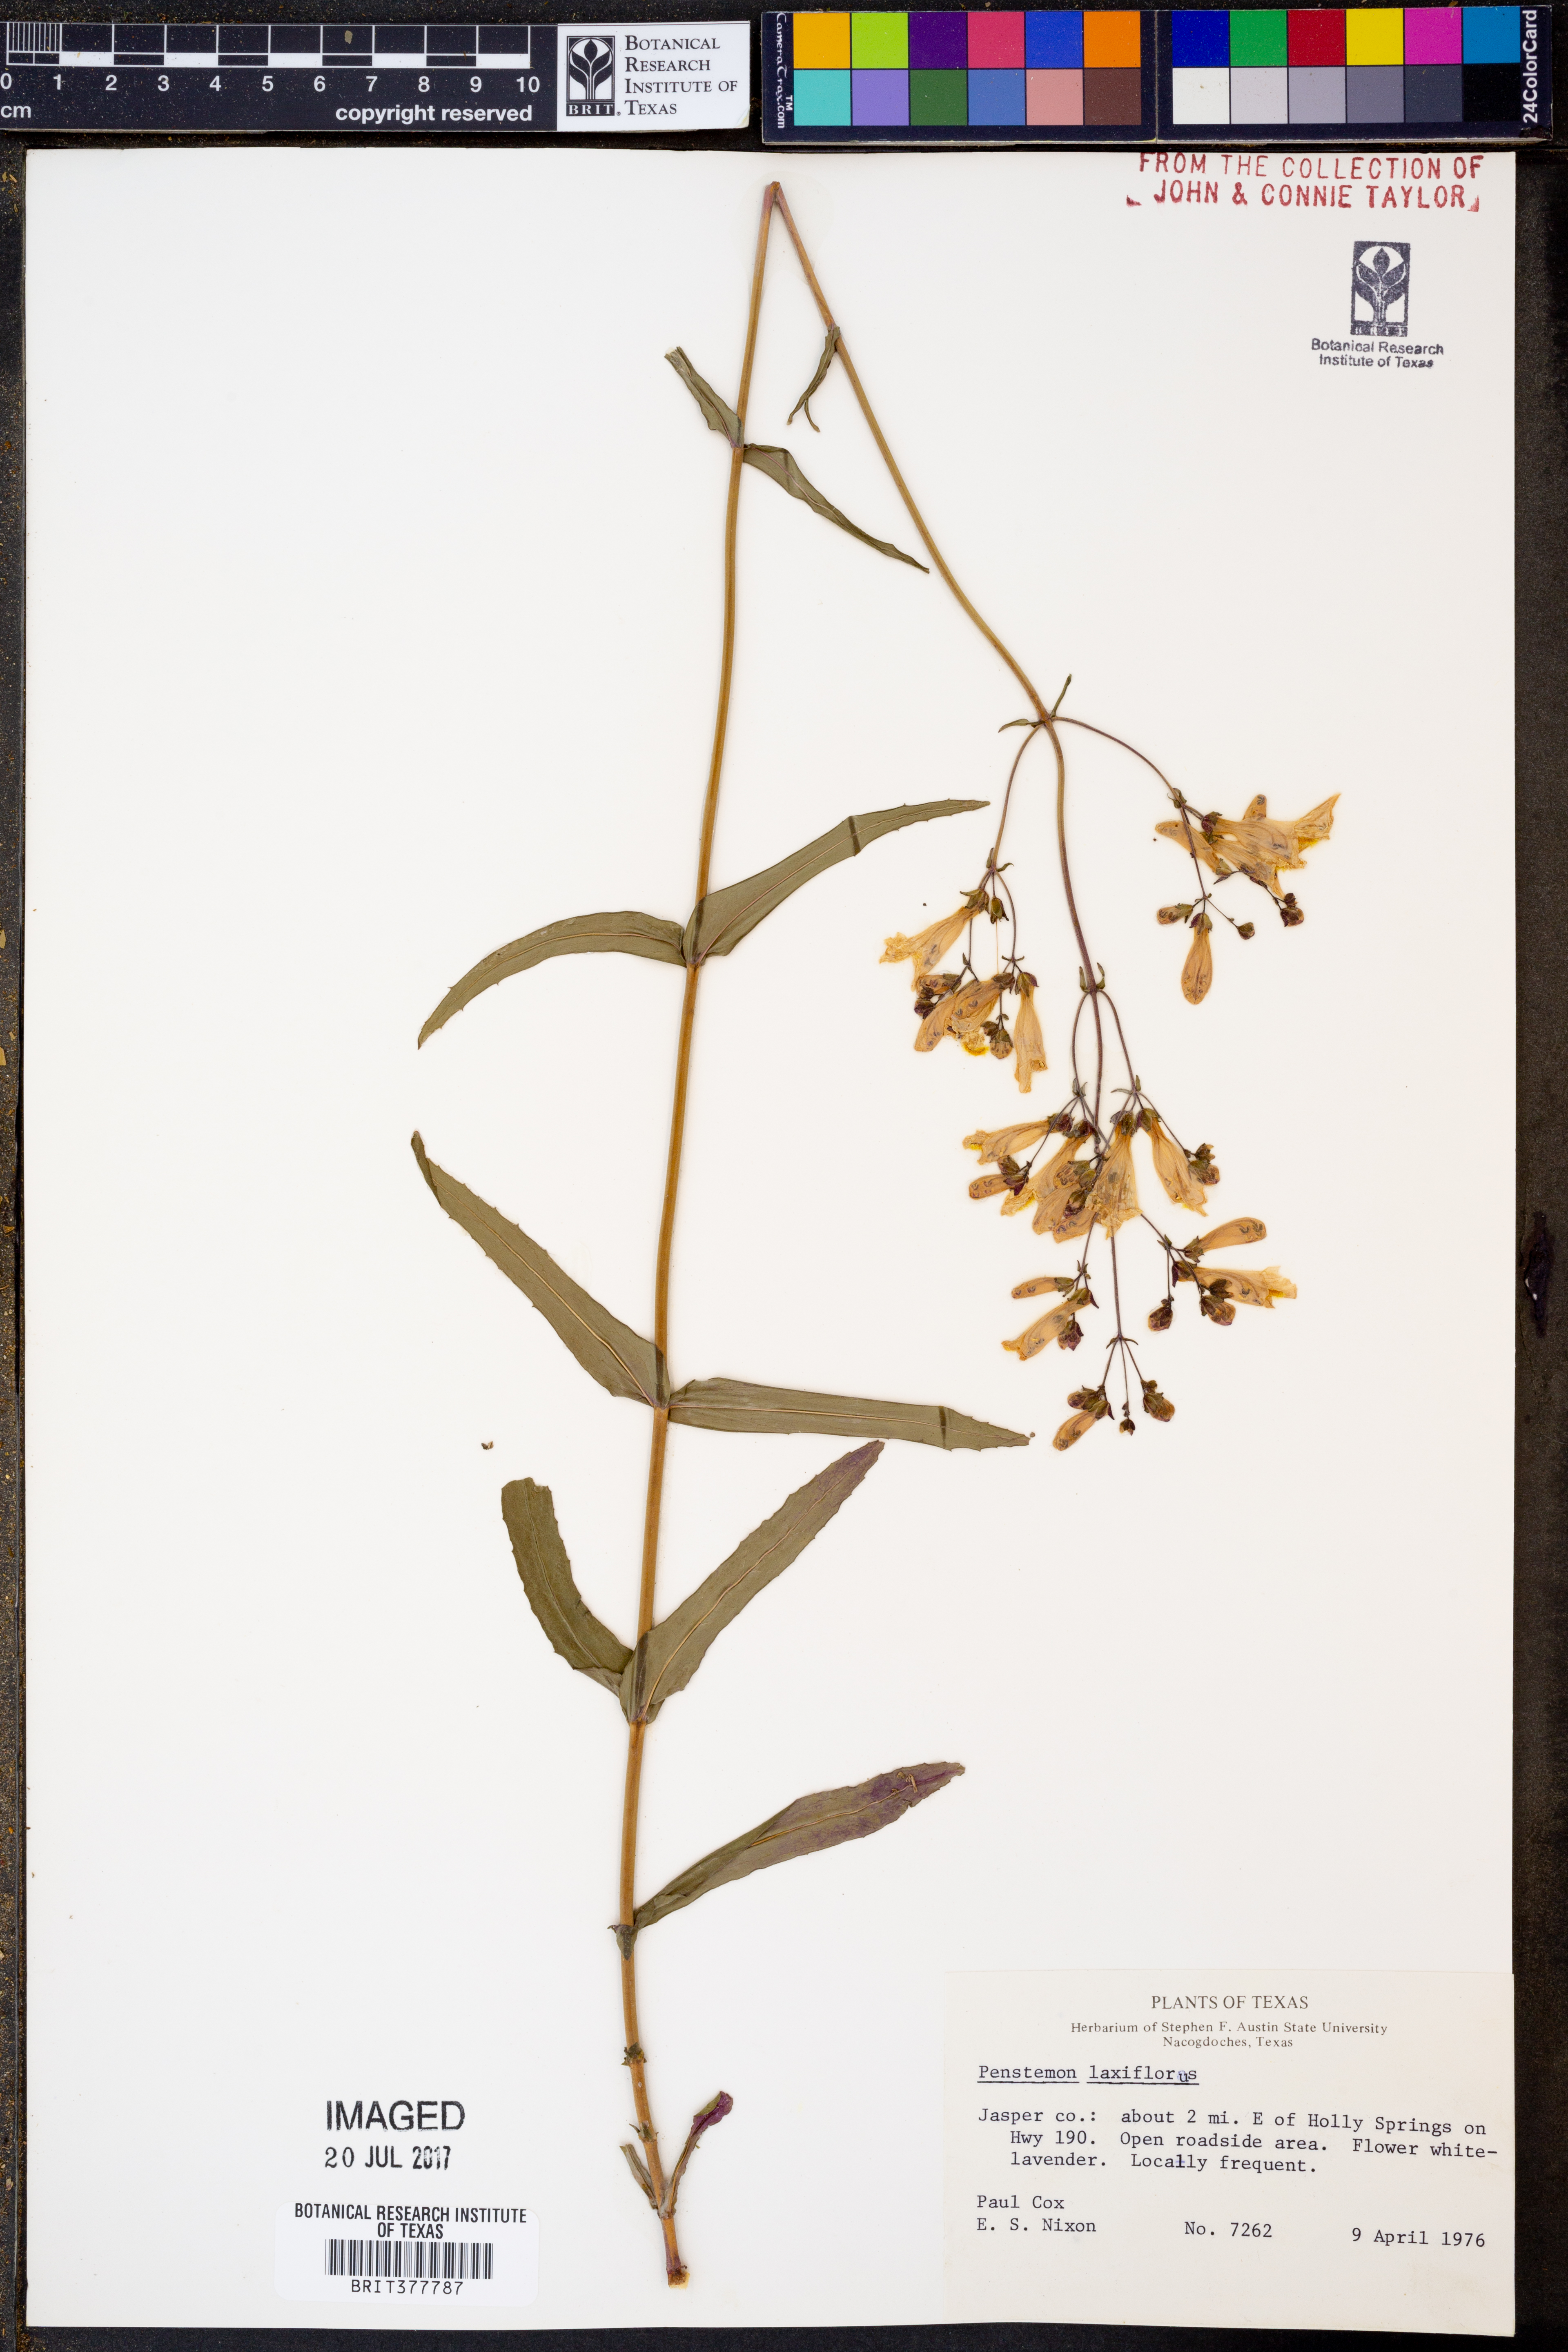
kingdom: Plantae
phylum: Tracheophyta
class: Magnoliopsida
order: Lamiales
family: Plantaginaceae
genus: Penstemon
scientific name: Penstemon laxiflorus
